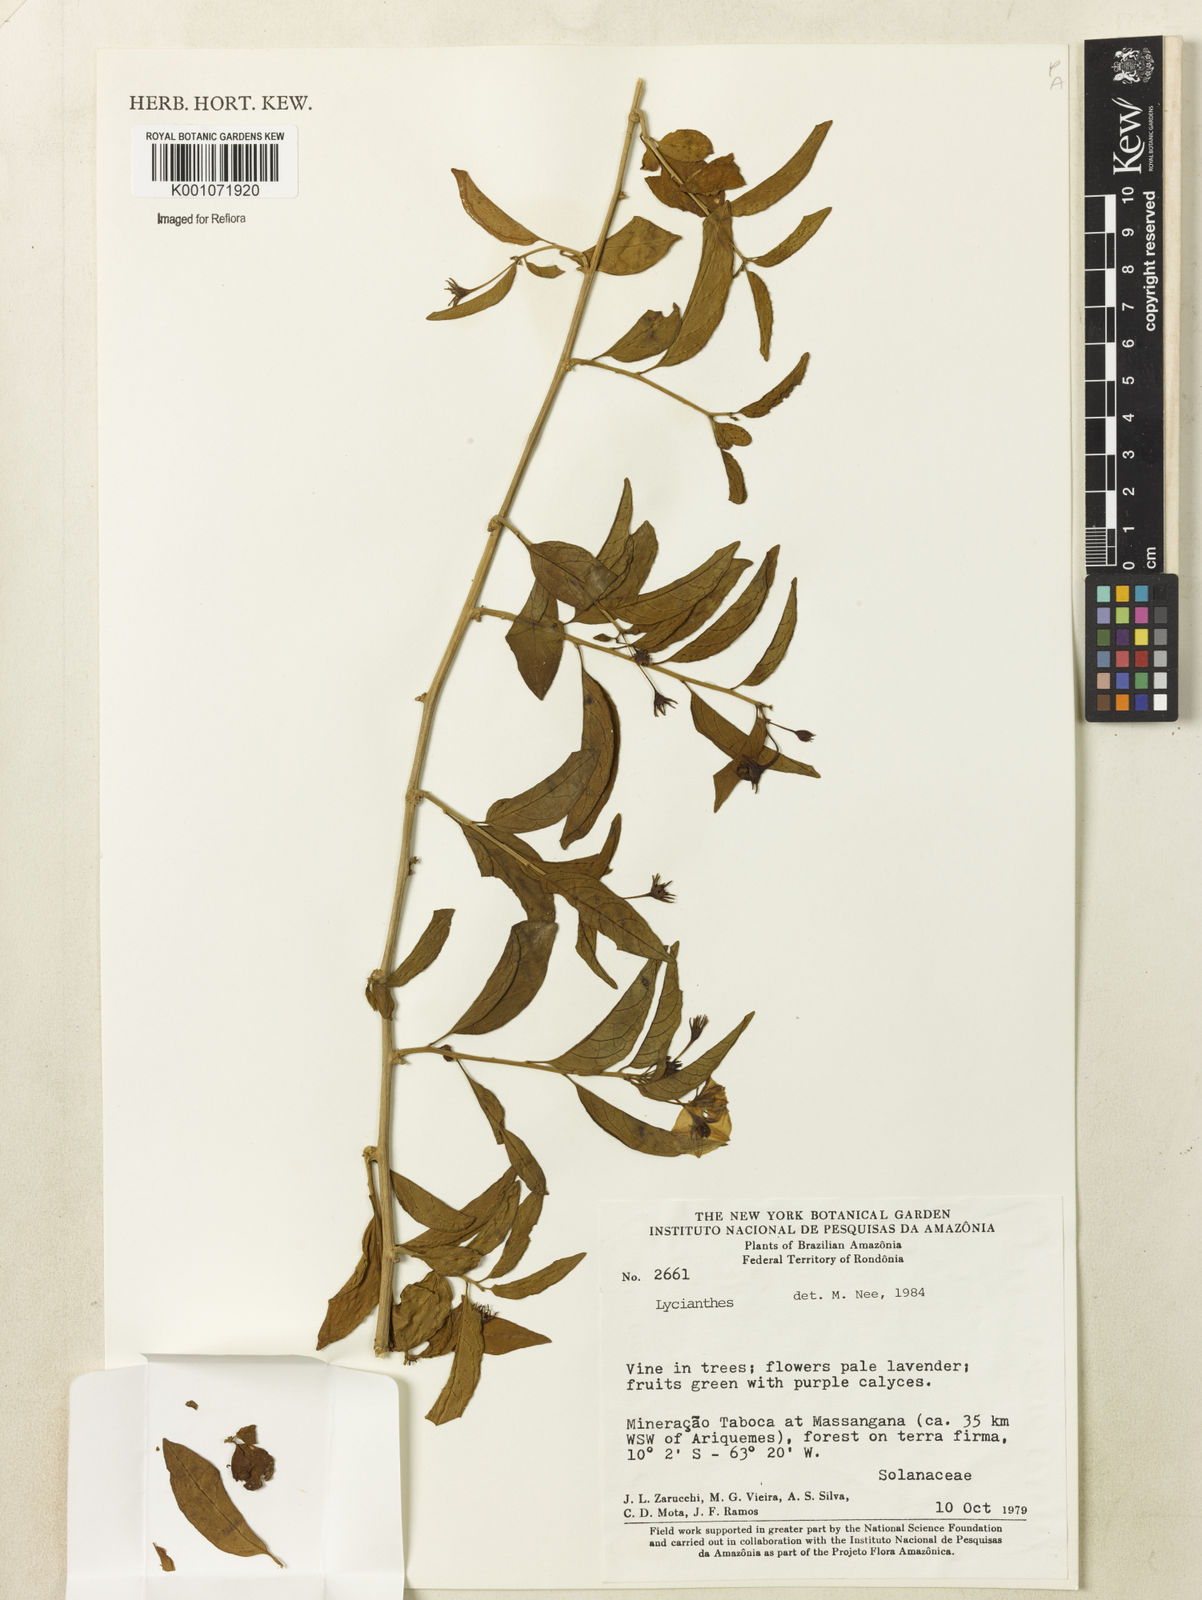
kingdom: Plantae
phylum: Tracheophyta
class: Magnoliopsida
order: Solanales
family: Solanaceae
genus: Lycianthes
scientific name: Lycianthes
